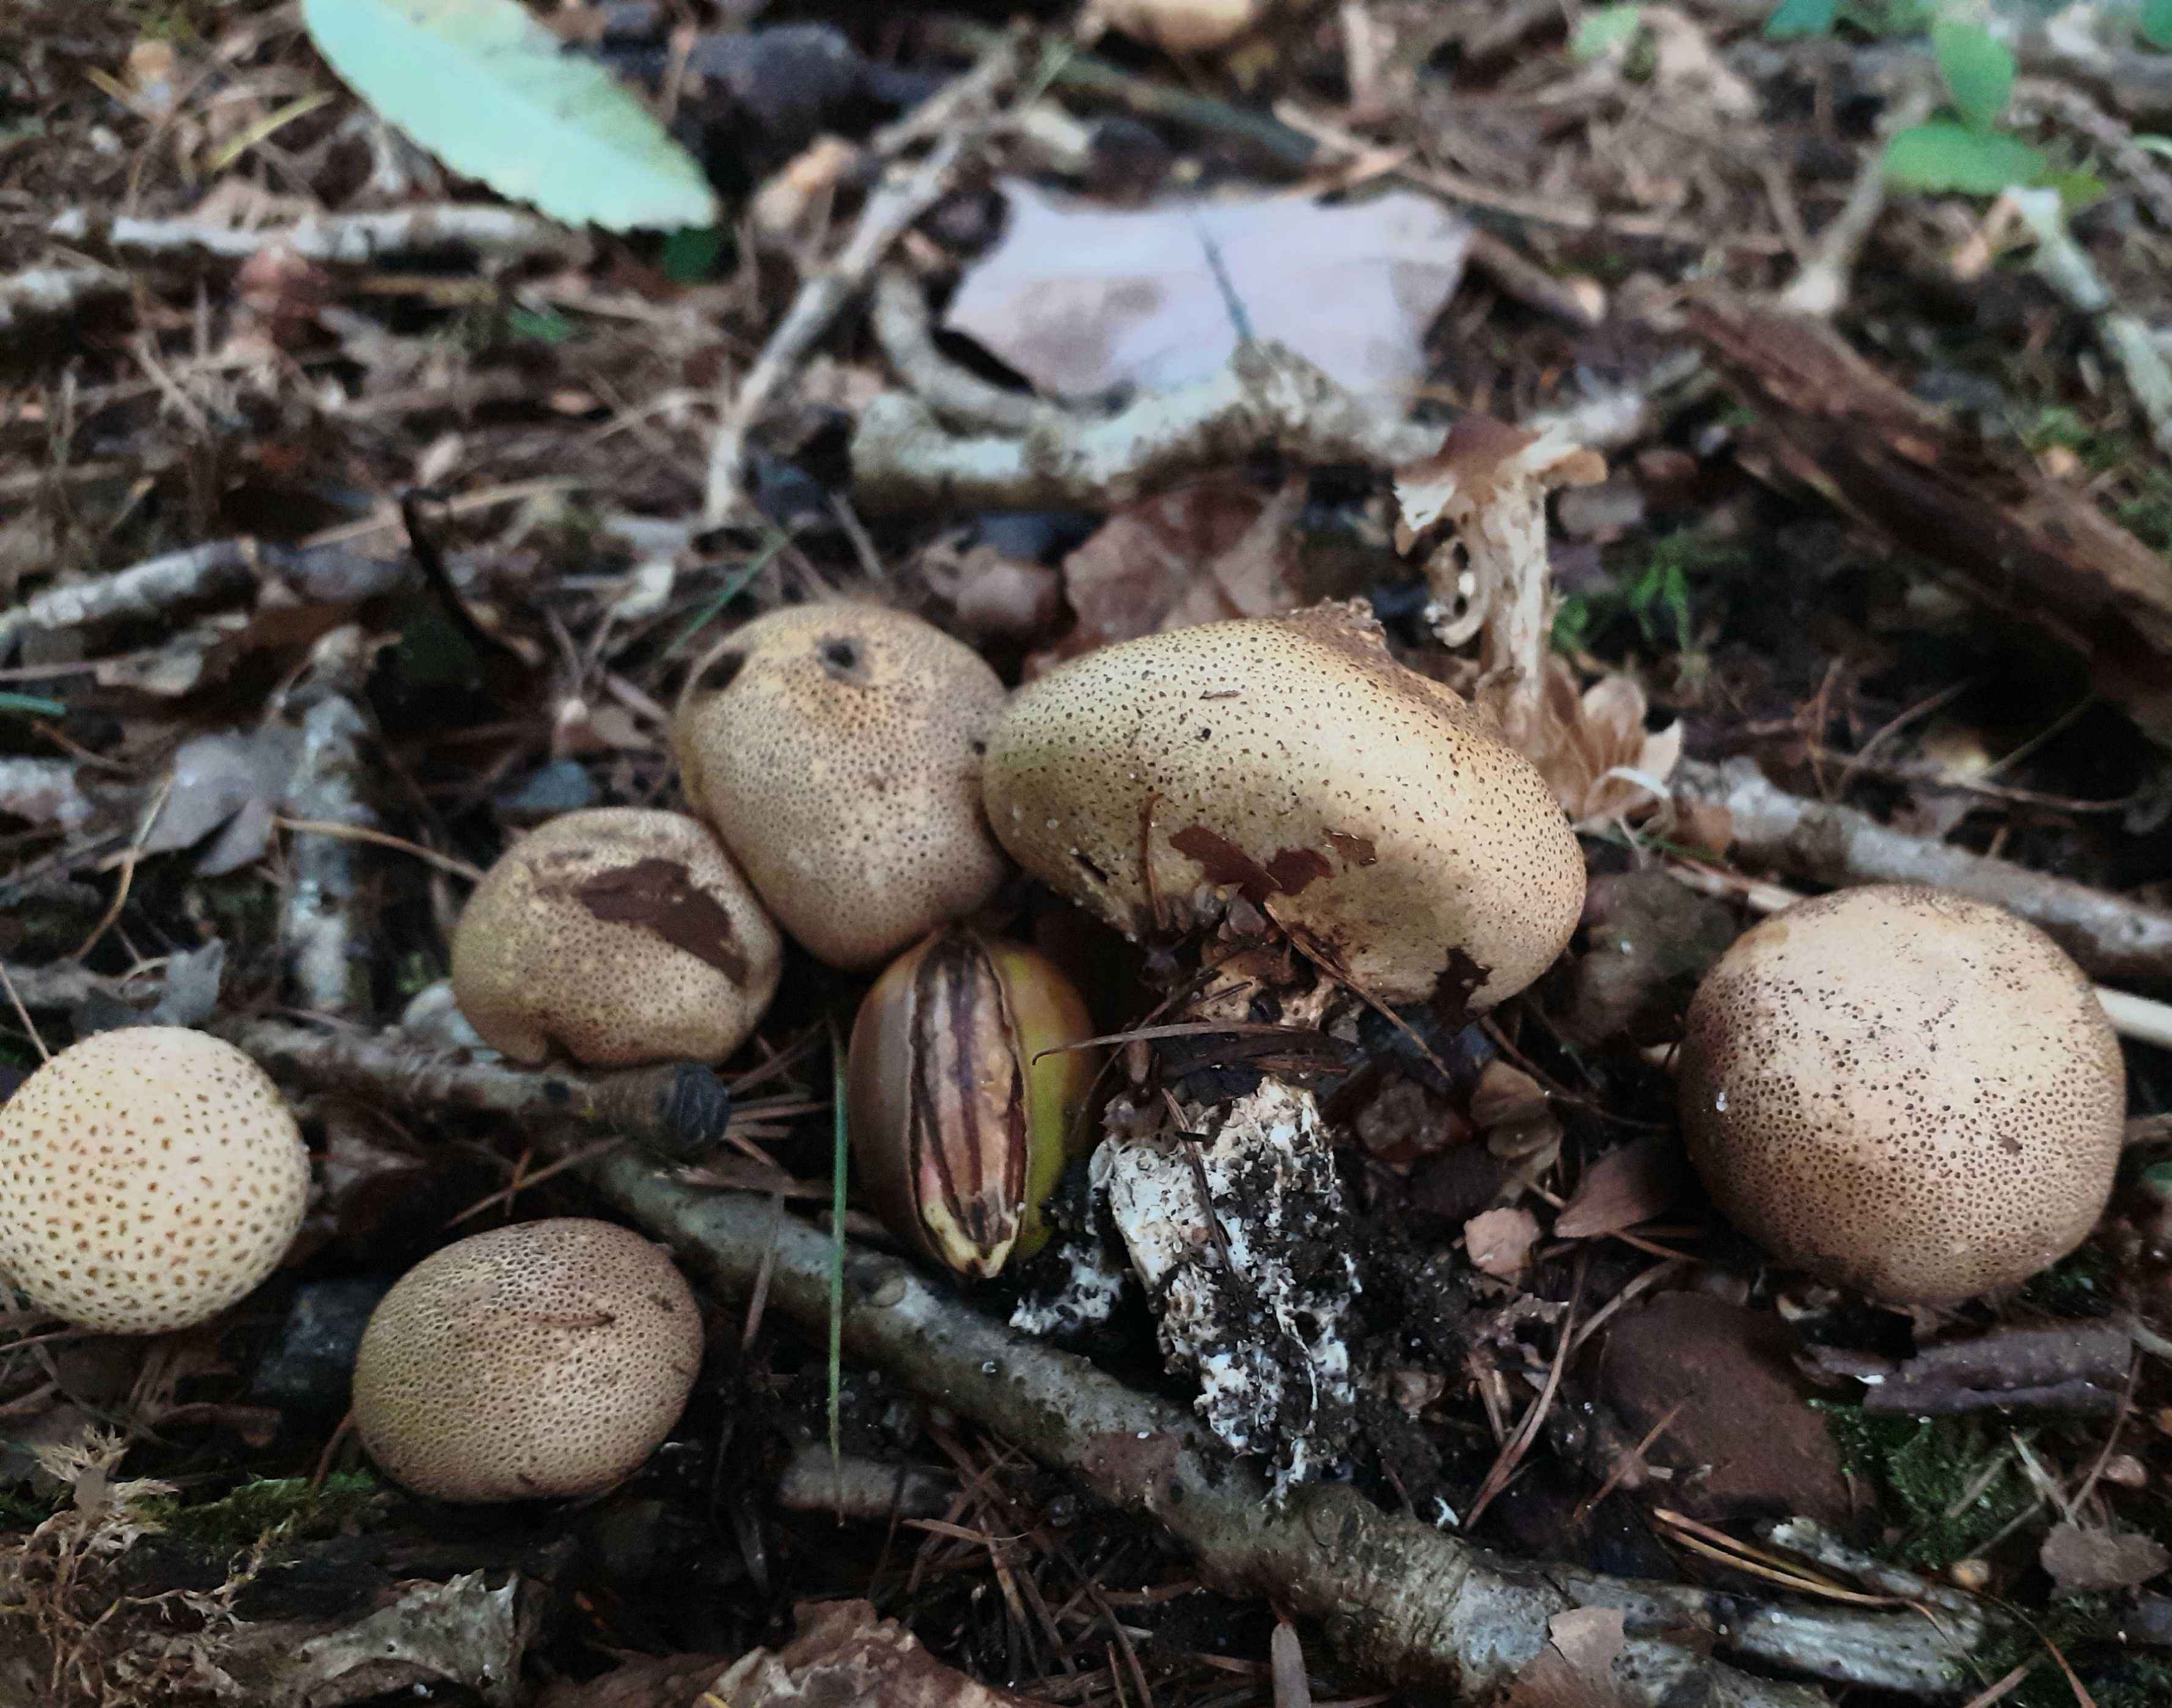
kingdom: Fungi
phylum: Basidiomycota
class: Agaricomycetes
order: Boletales
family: Sclerodermataceae
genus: Scleroderma
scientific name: Scleroderma areolatum
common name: plettet bruskbold
